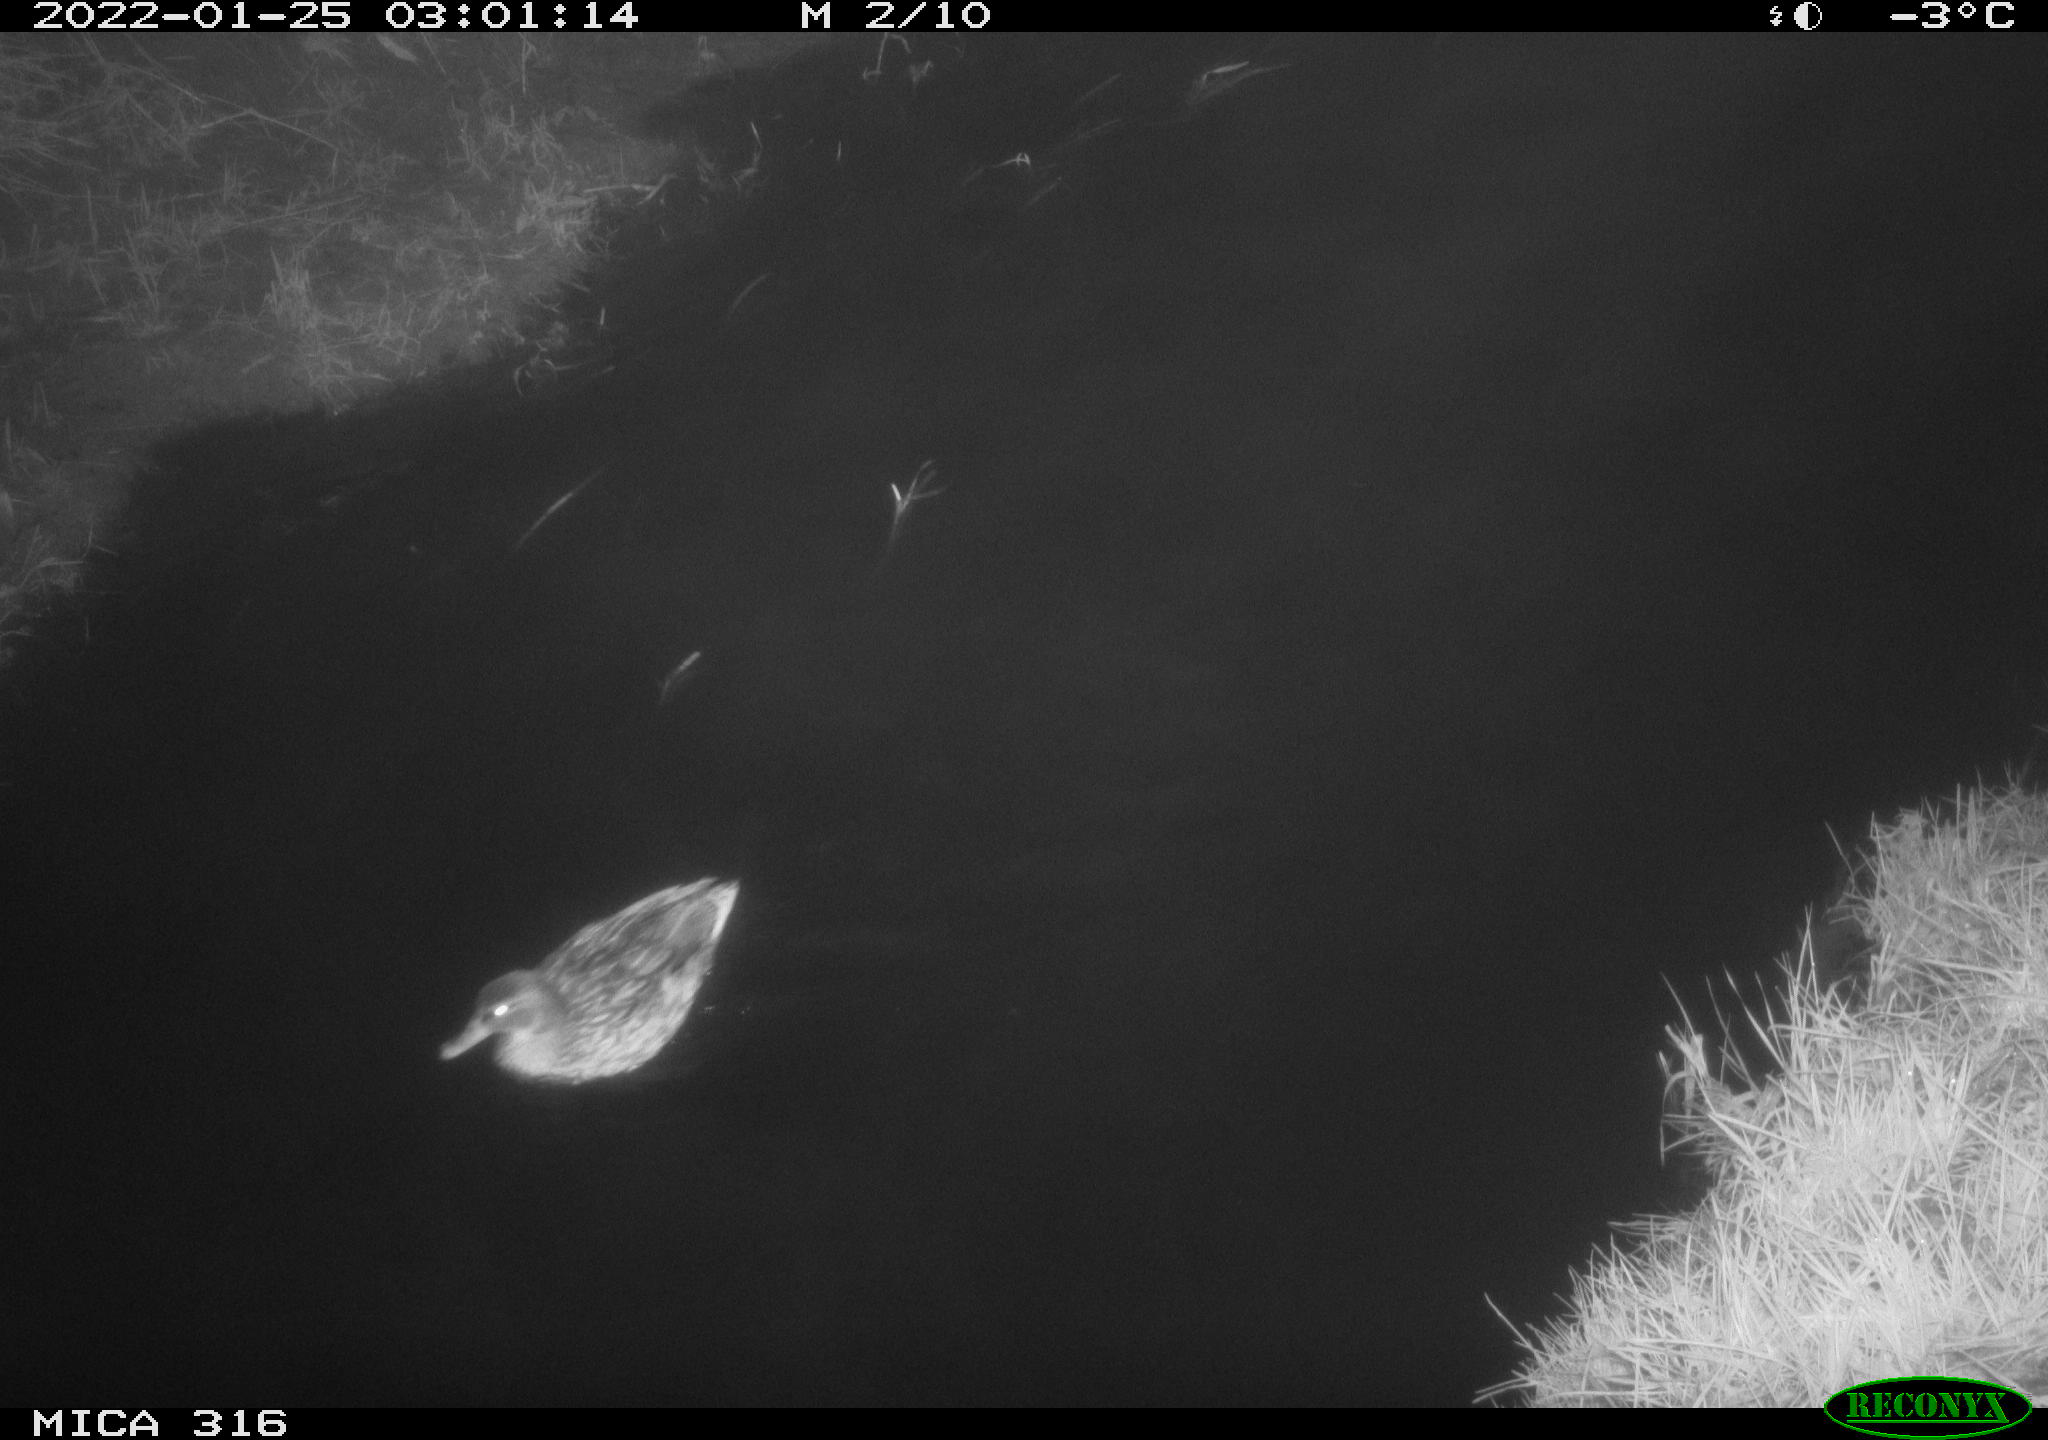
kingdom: Animalia
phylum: Chordata
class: Aves
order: Anseriformes
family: Anatidae
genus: Anas
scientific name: Anas platyrhynchos
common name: Mallard
